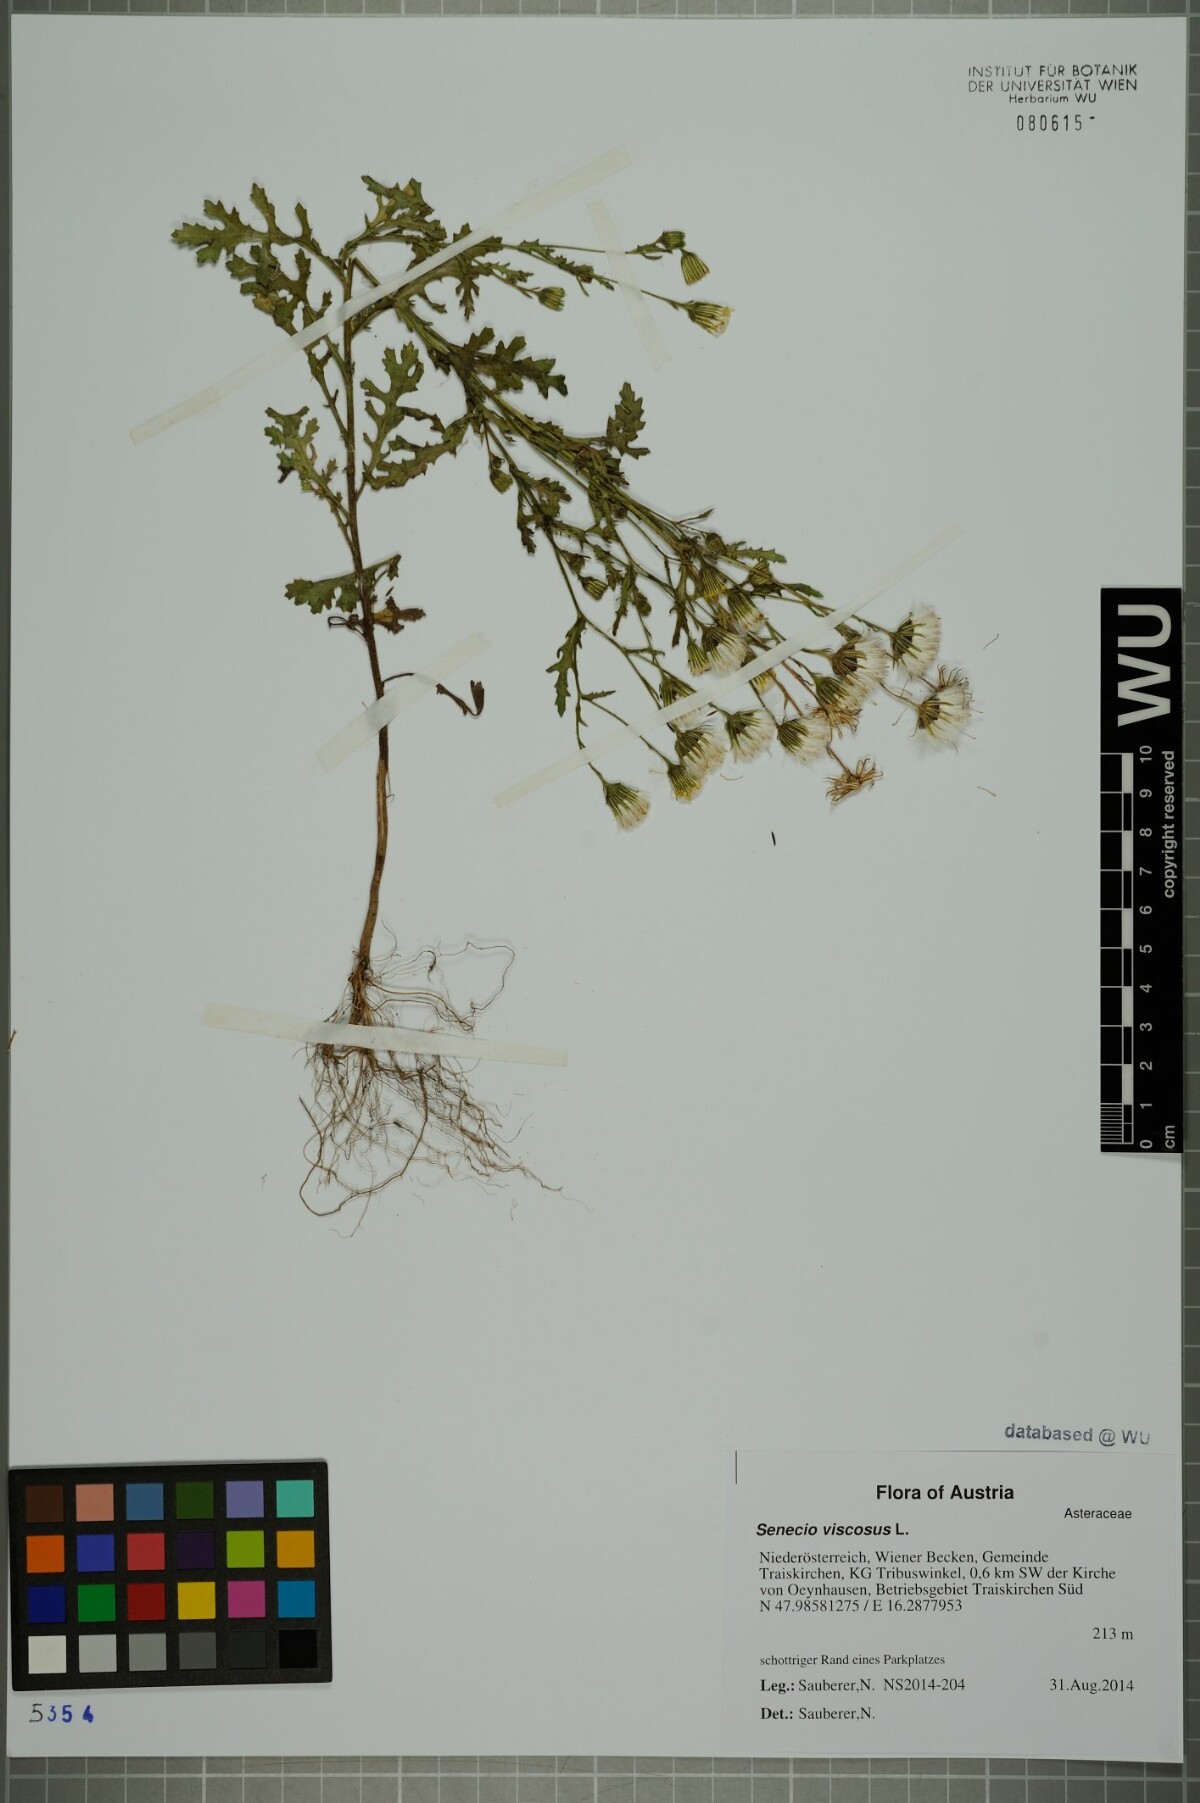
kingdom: Plantae
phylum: Tracheophyta
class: Magnoliopsida
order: Asterales
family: Asteraceae
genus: Senecio
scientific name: Senecio viscosus
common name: Sticky groundsel
